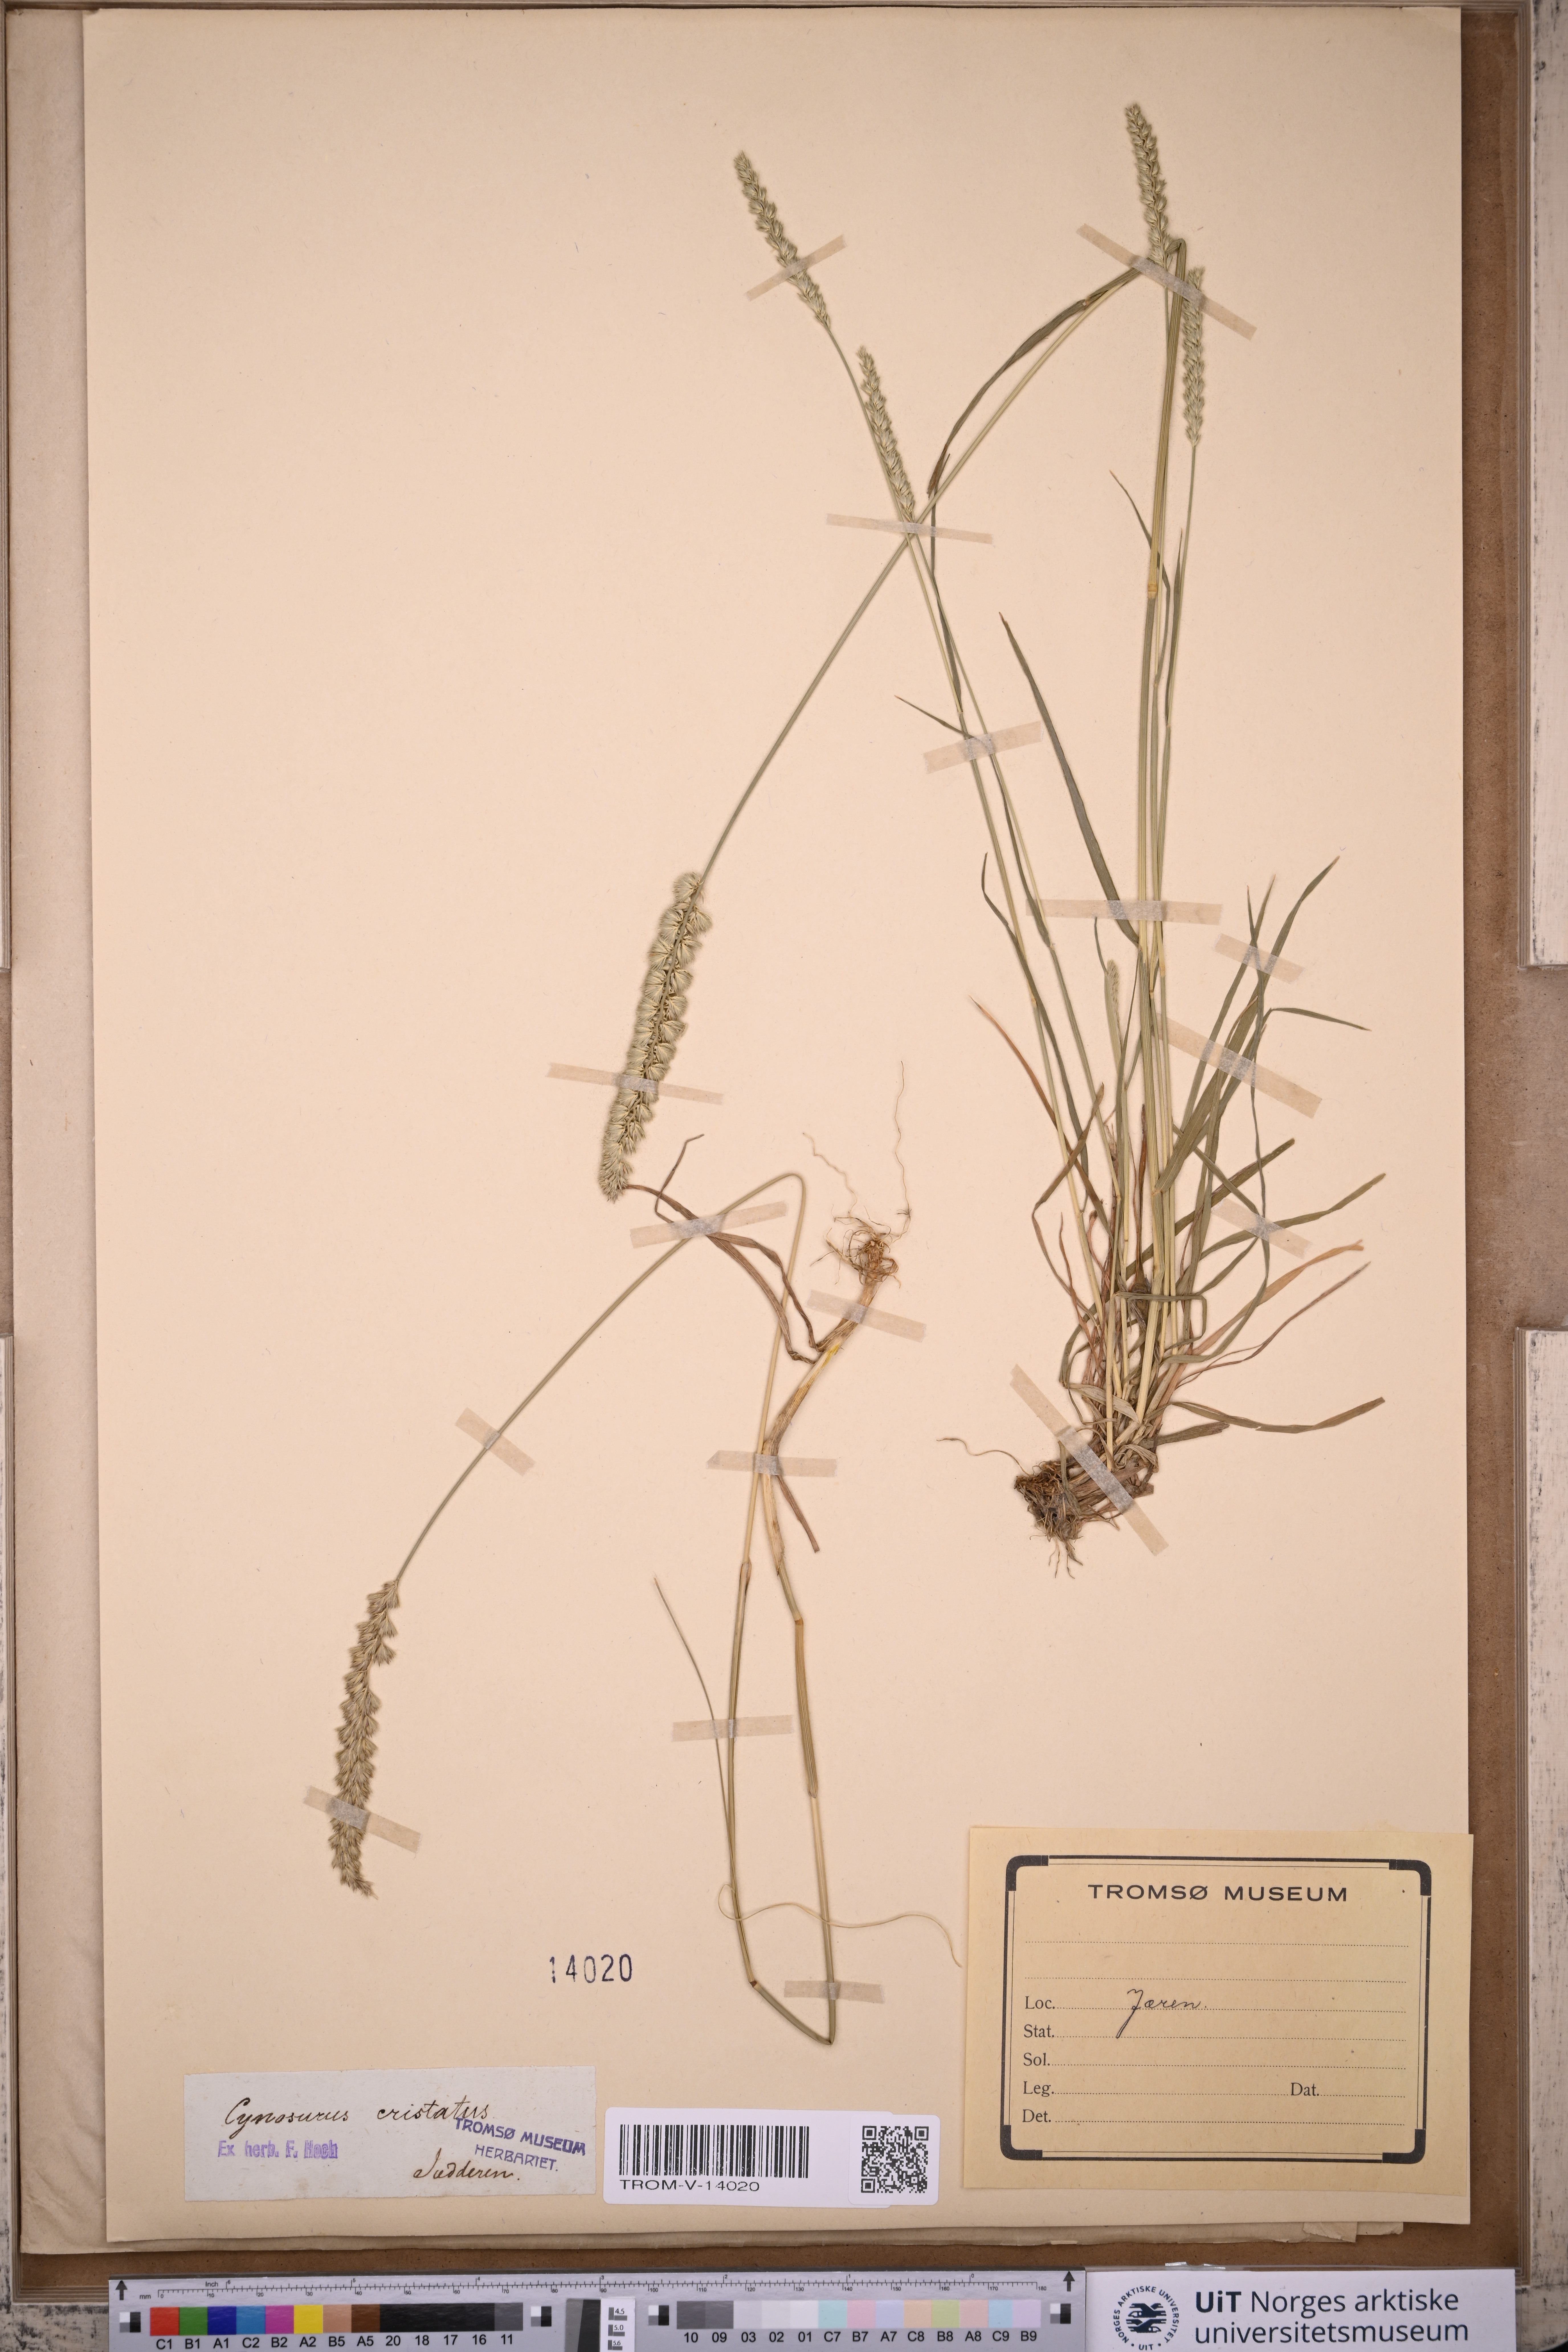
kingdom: Plantae
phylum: Tracheophyta
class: Liliopsida
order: Poales
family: Poaceae
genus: Cynosurus
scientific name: Cynosurus cristatus
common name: Crested dog's-tail
